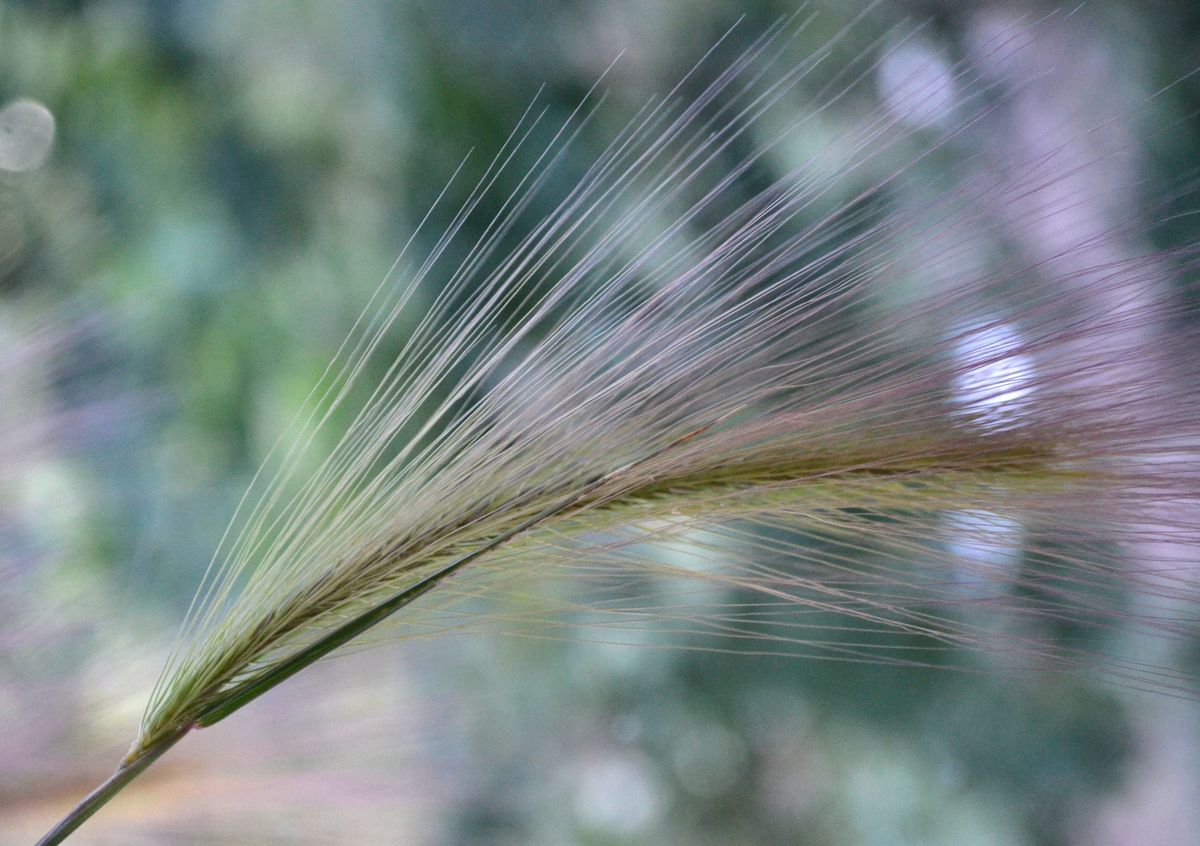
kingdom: Plantae
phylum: Tracheophyta
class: Liliopsida
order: Poales
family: Poaceae
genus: Hordeum
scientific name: Hordeum jubatum
